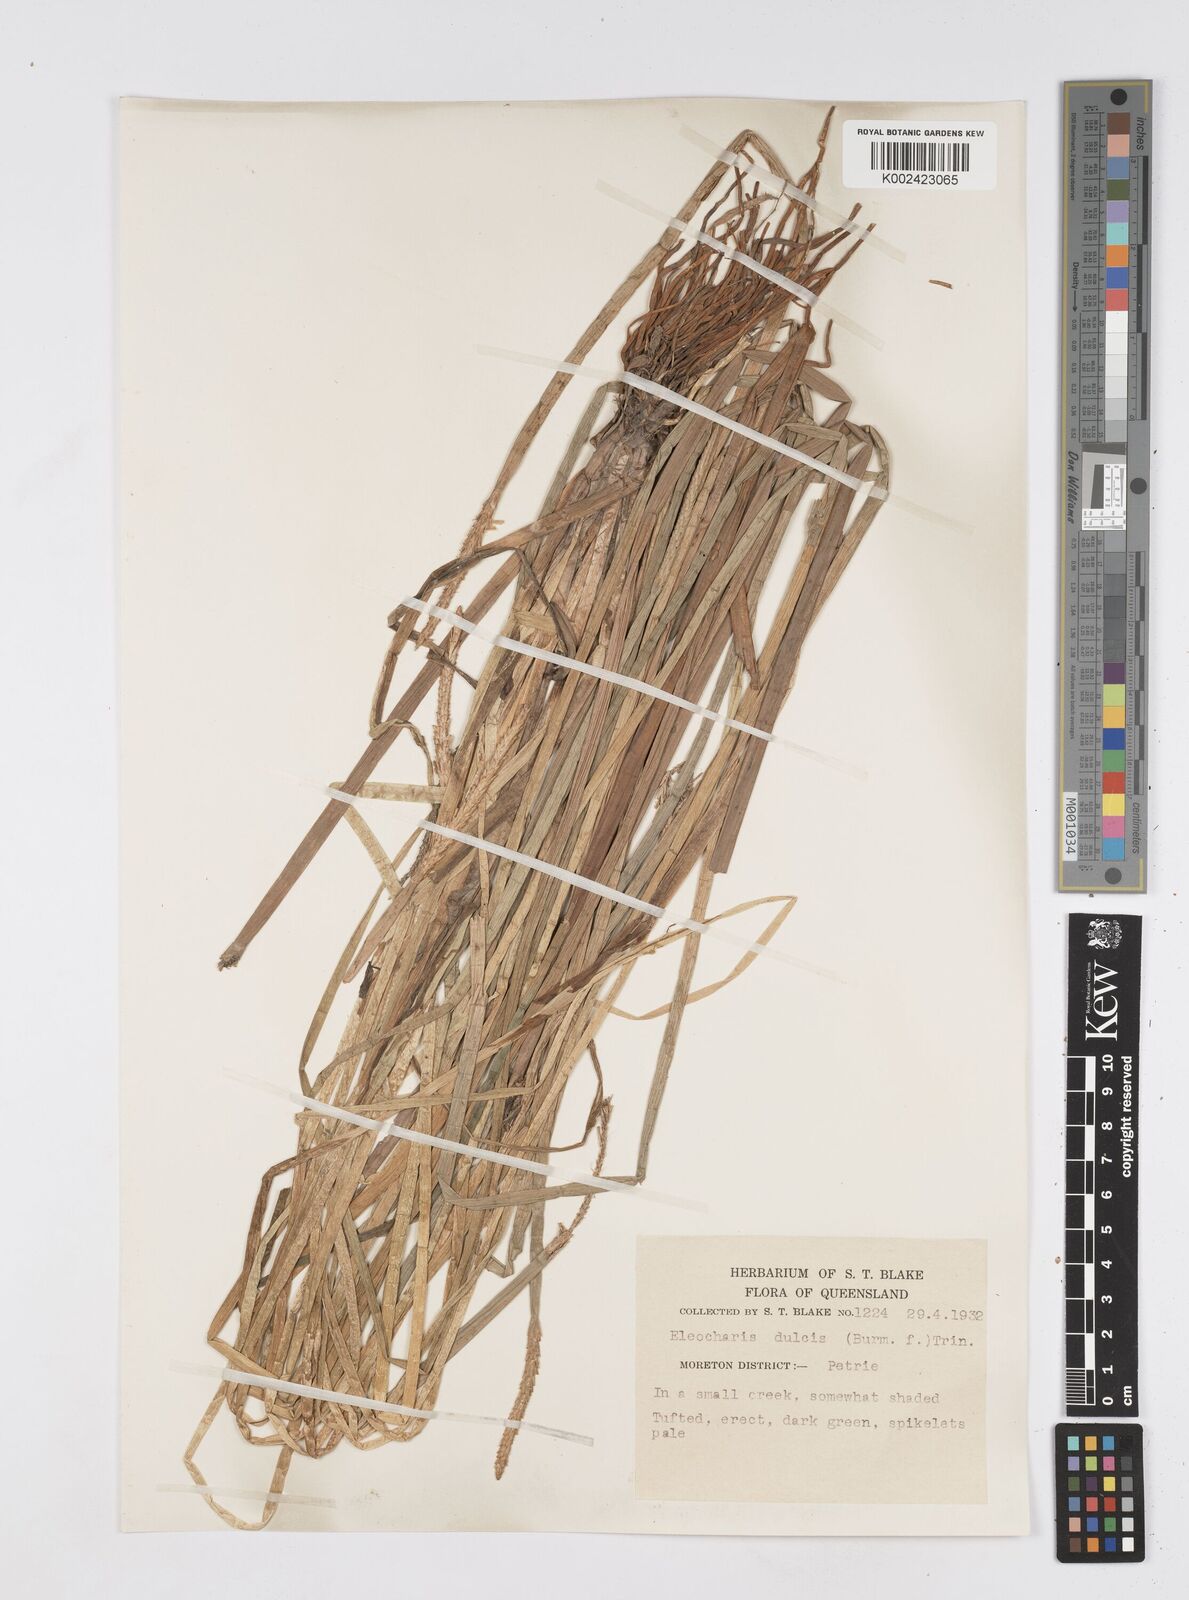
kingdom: Plantae
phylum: Tracheophyta
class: Liliopsida
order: Poales
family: Cyperaceae
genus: Eleocharis
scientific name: Eleocharis dulcis
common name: Chinese water chestnut
